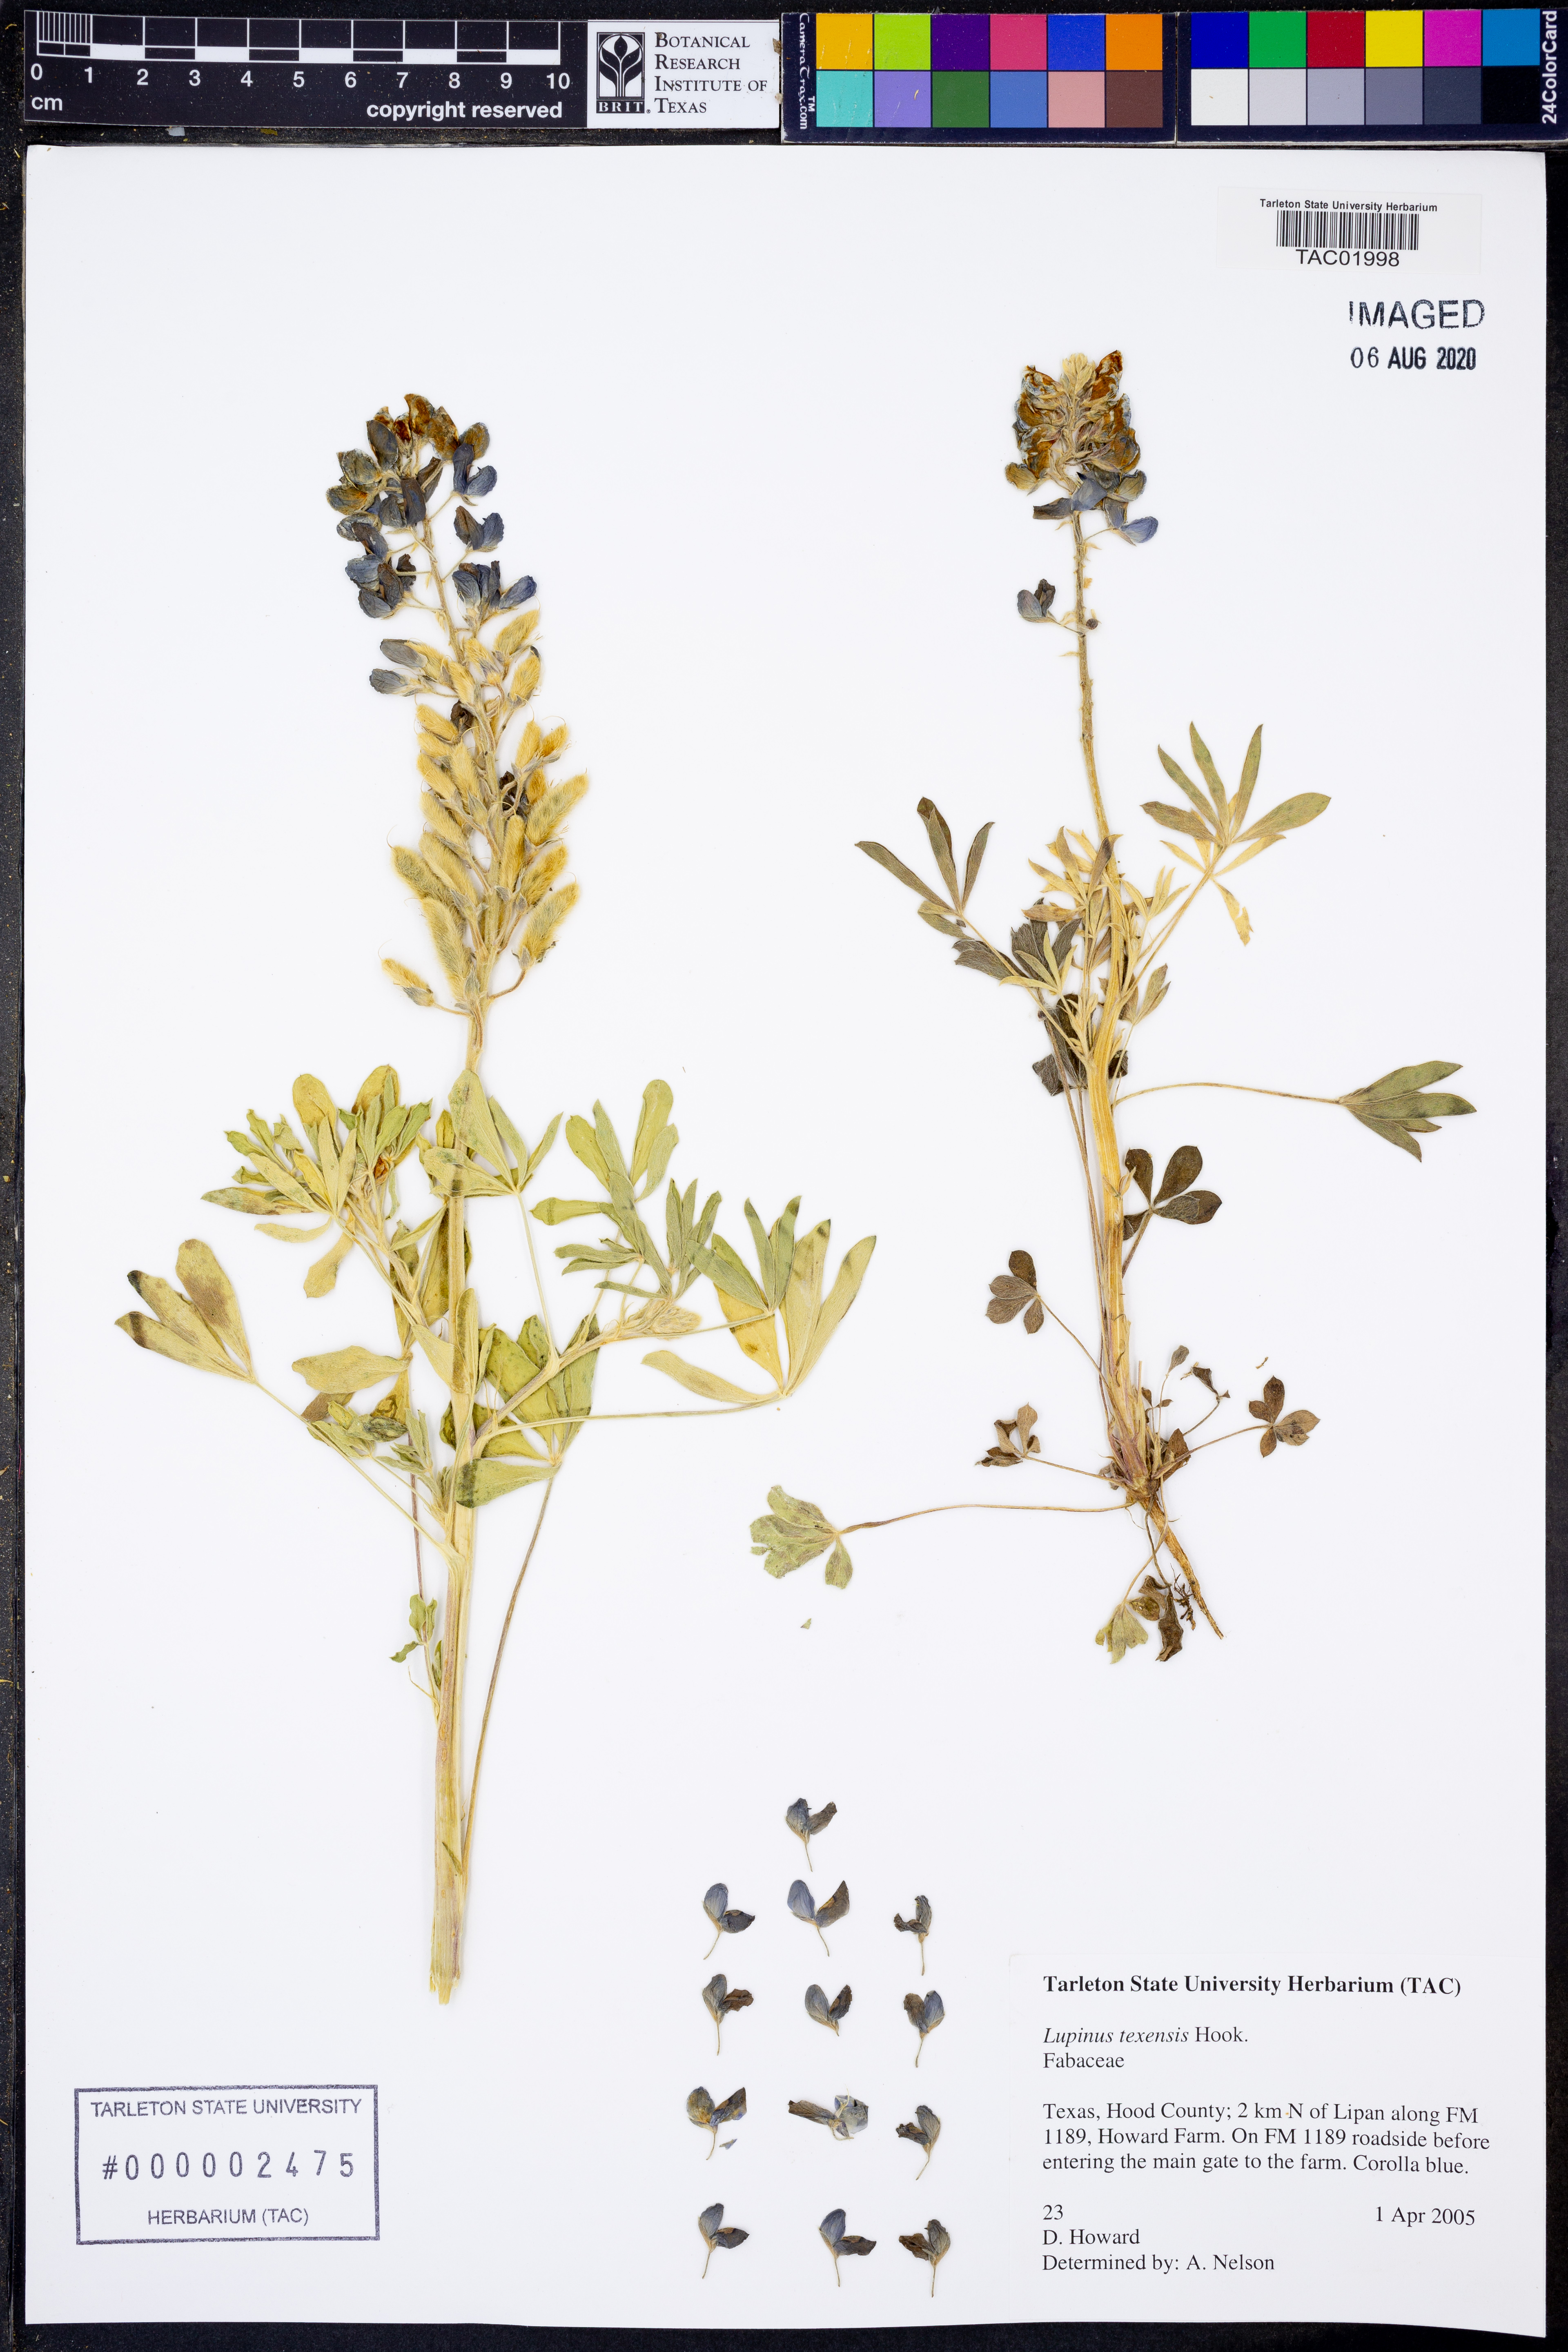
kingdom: Plantae
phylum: Tracheophyta
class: Magnoliopsida
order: Fabales
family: Fabaceae
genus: Lupinus
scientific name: Lupinus texensis
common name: Texas bluebonnet
